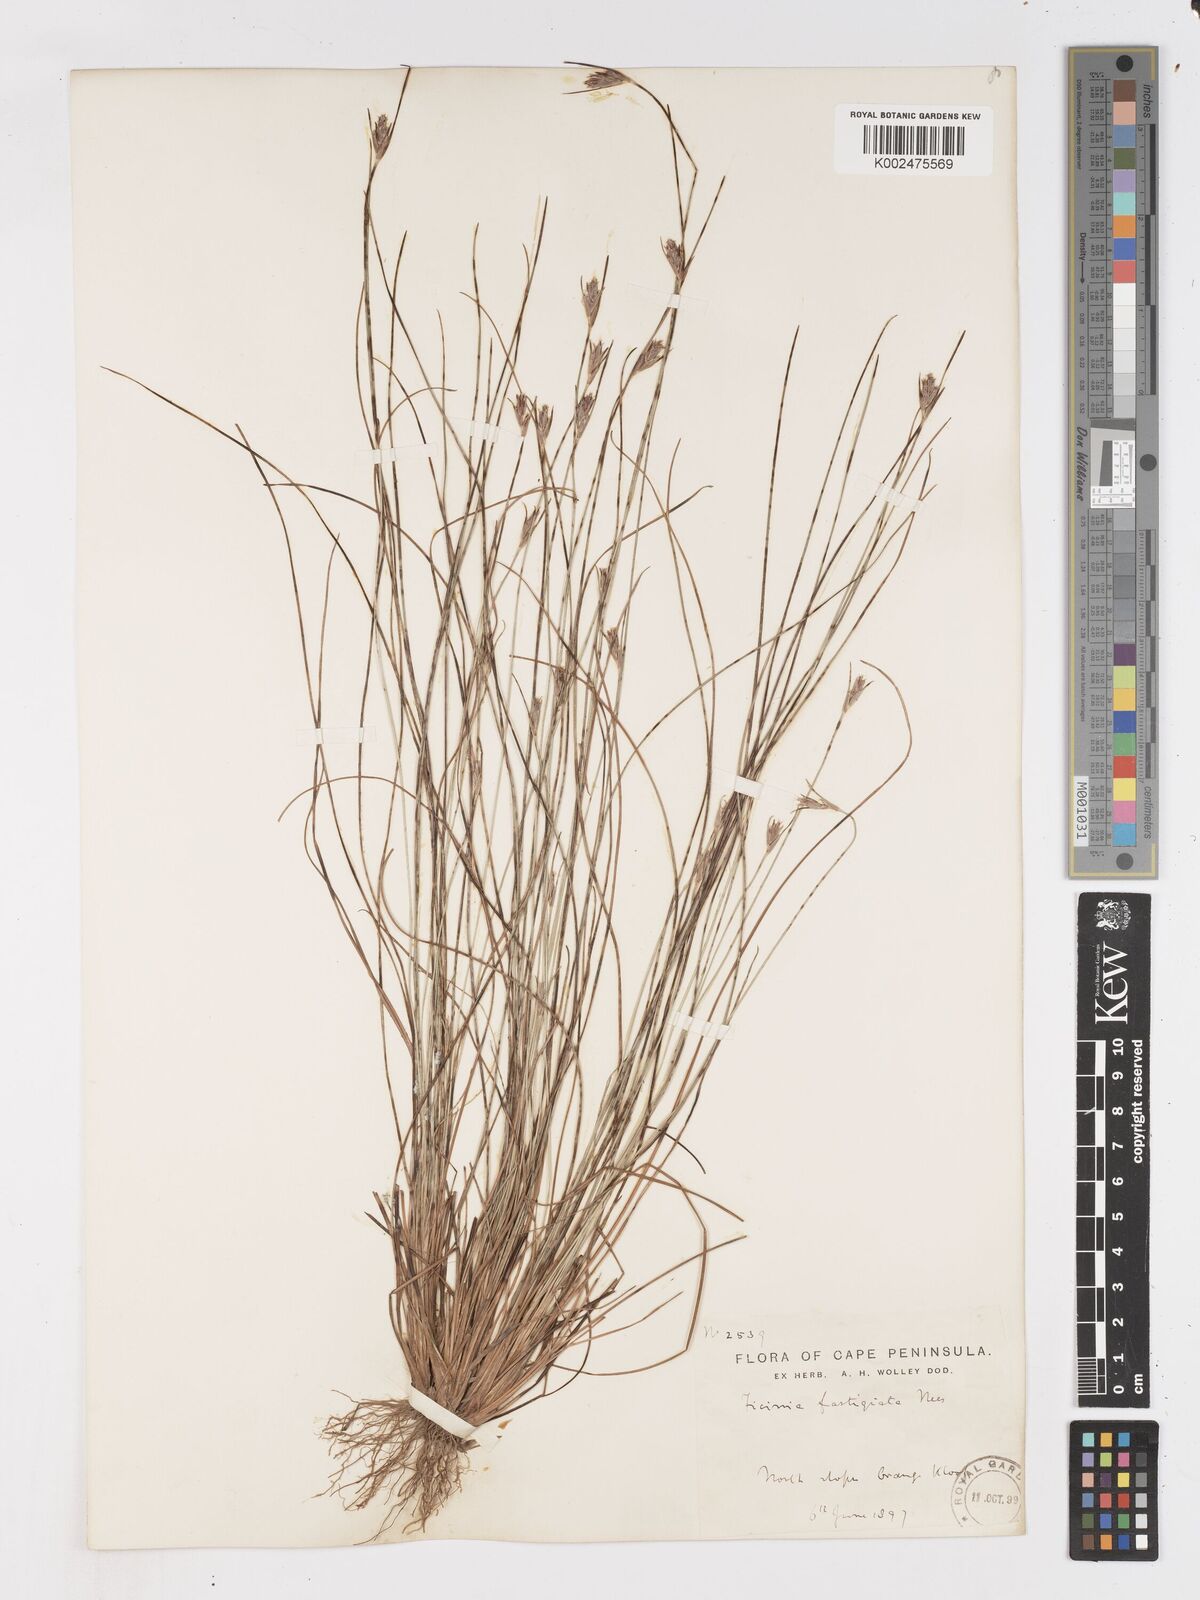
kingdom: Plantae
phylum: Tracheophyta
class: Liliopsida
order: Poales
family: Cyperaceae
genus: Ficinia
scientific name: Ficinia fastigiata
